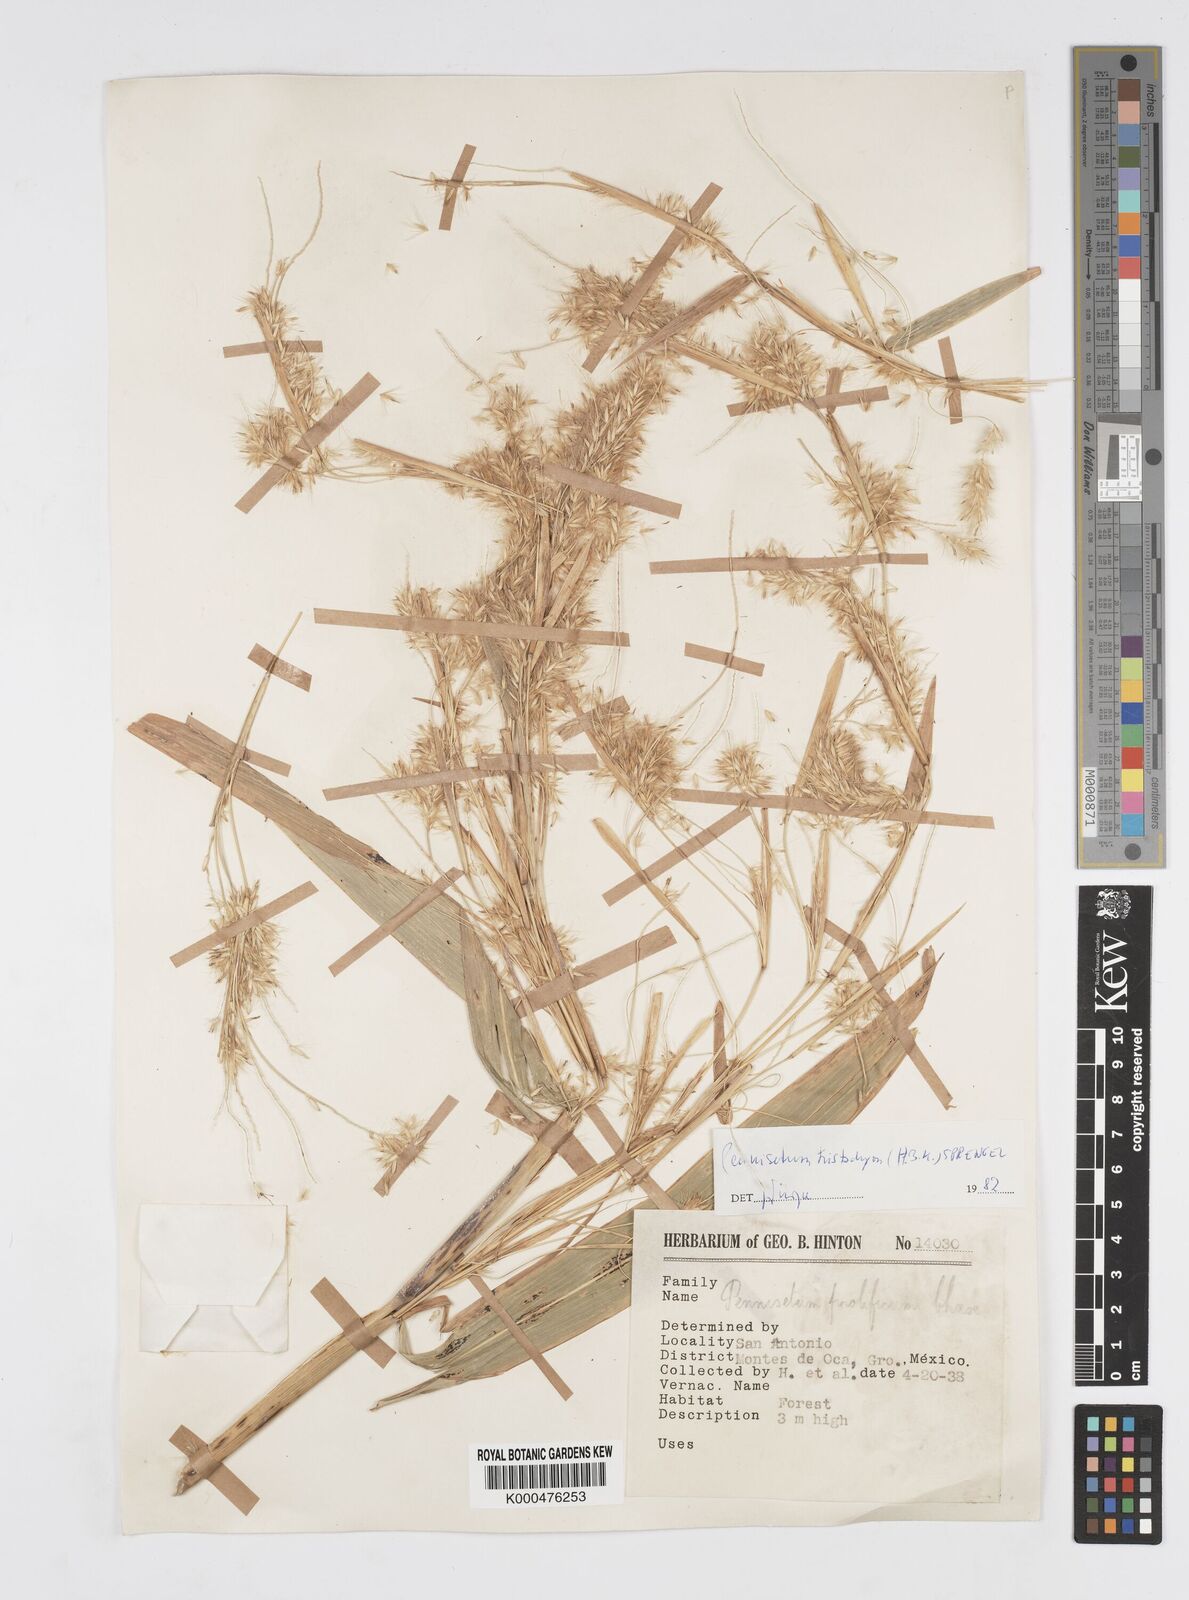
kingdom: Plantae
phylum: Tracheophyta
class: Liliopsida
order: Poales
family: Poaceae
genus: Cenchrus
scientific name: Cenchrus prolificus
